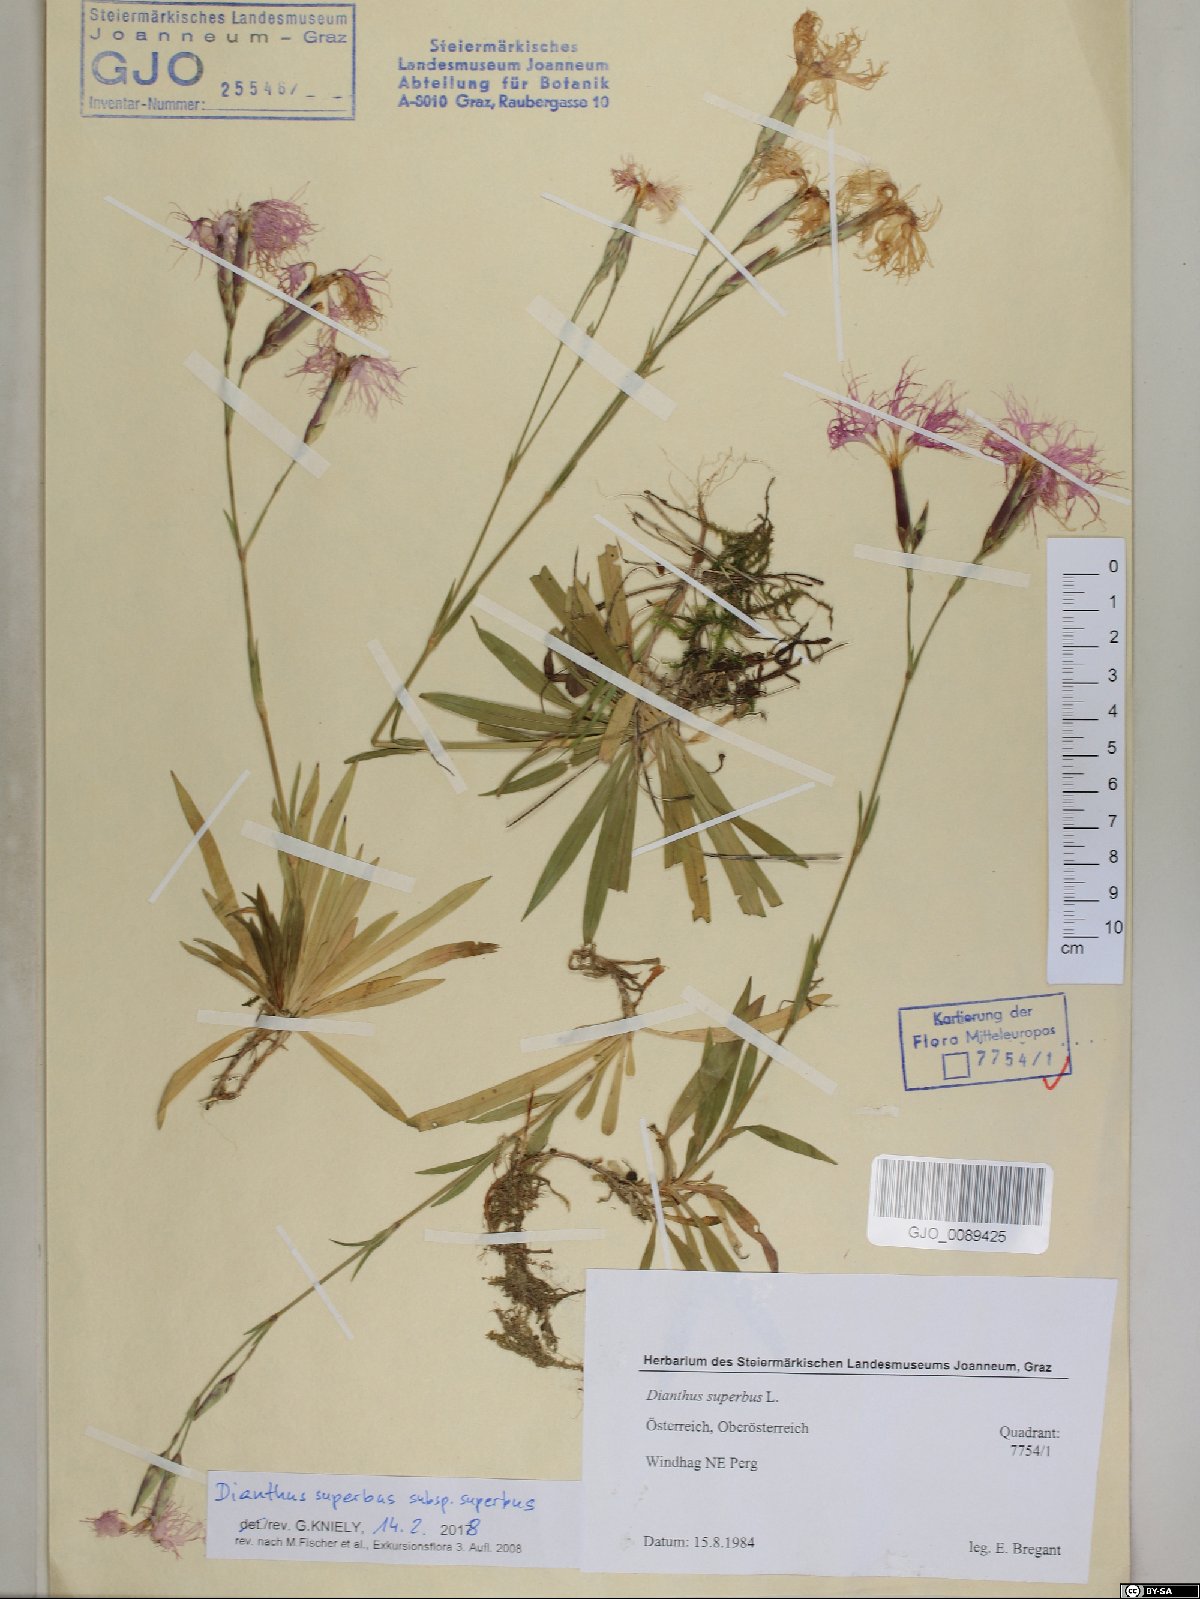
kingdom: Plantae
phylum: Tracheophyta
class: Magnoliopsida
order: Caryophyllales
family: Caryophyllaceae
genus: Dianthus
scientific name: Dianthus superbus
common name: Fringed pink
